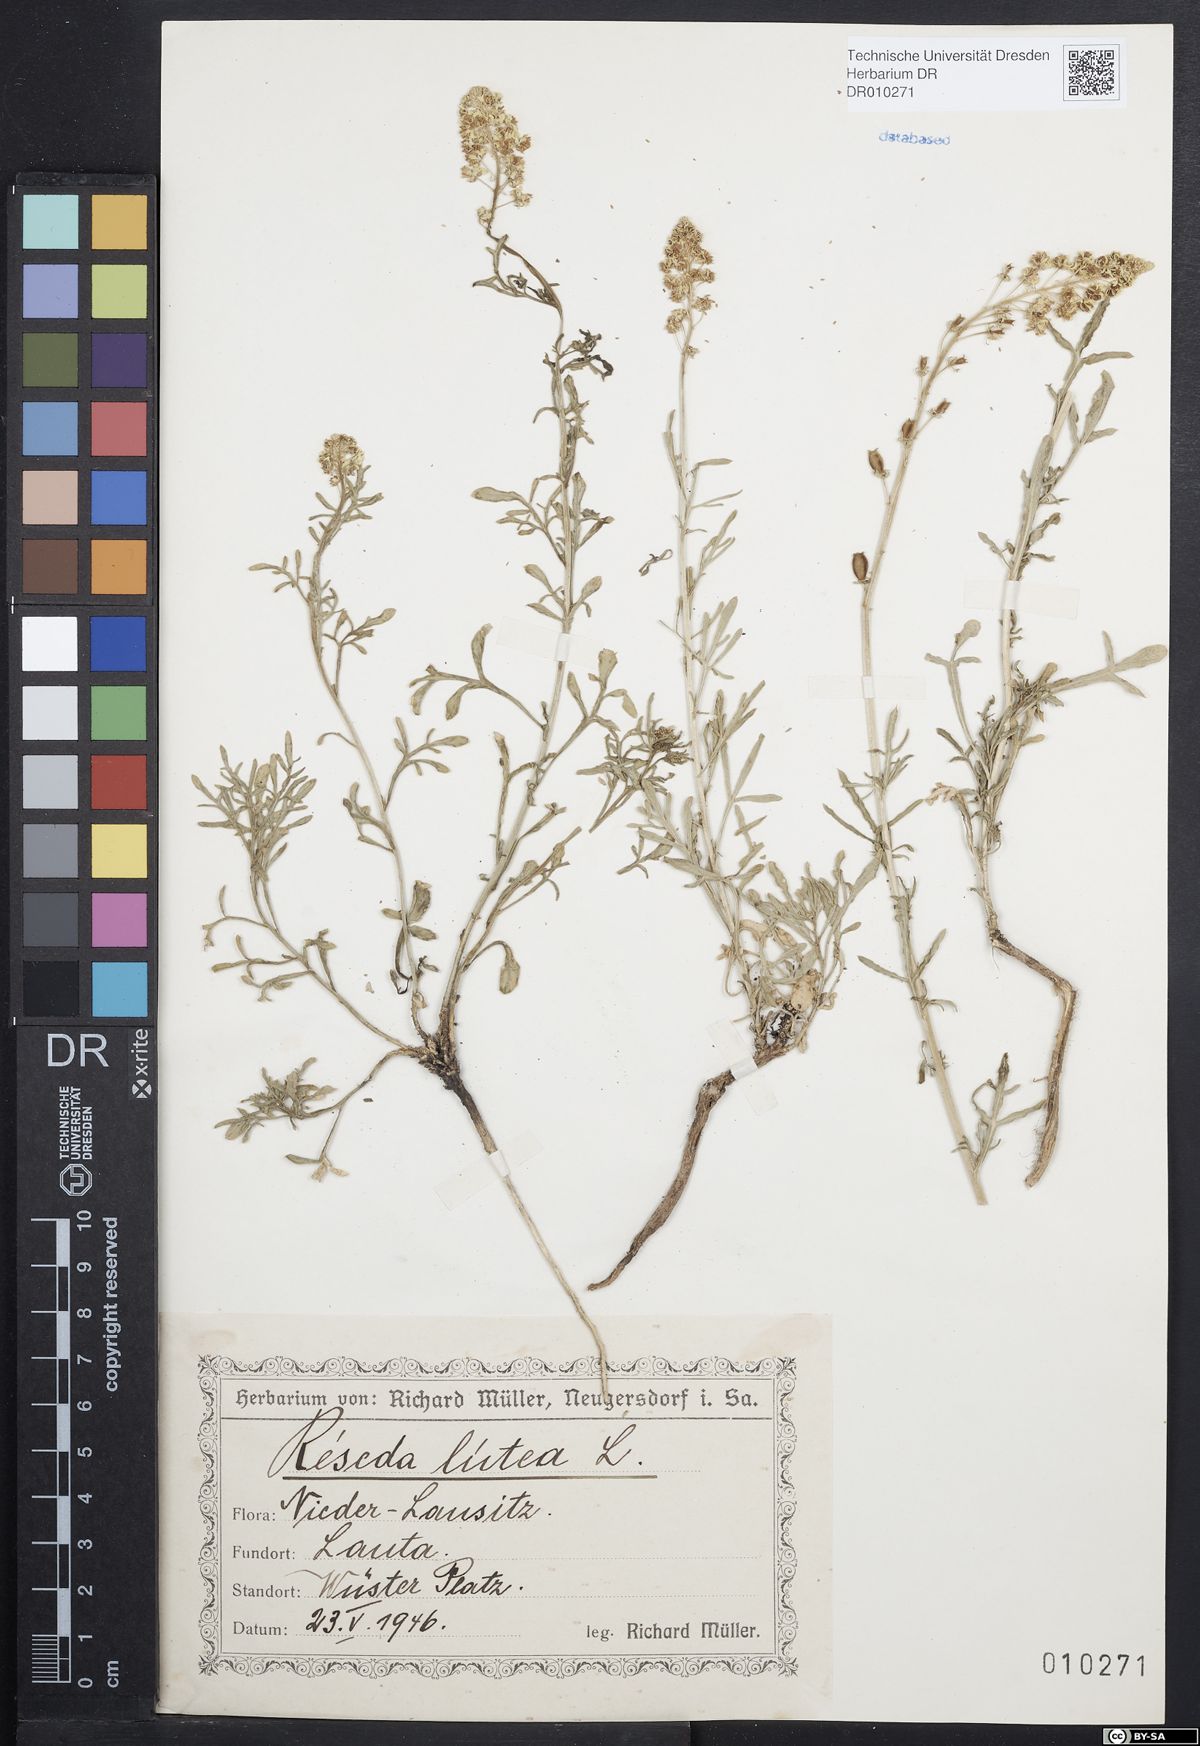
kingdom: Plantae
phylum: Tracheophyta
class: Magnoliopsida
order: Brassicales
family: Resedaceae
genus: Reseda
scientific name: Reseda lutea
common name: Wild mignonette
